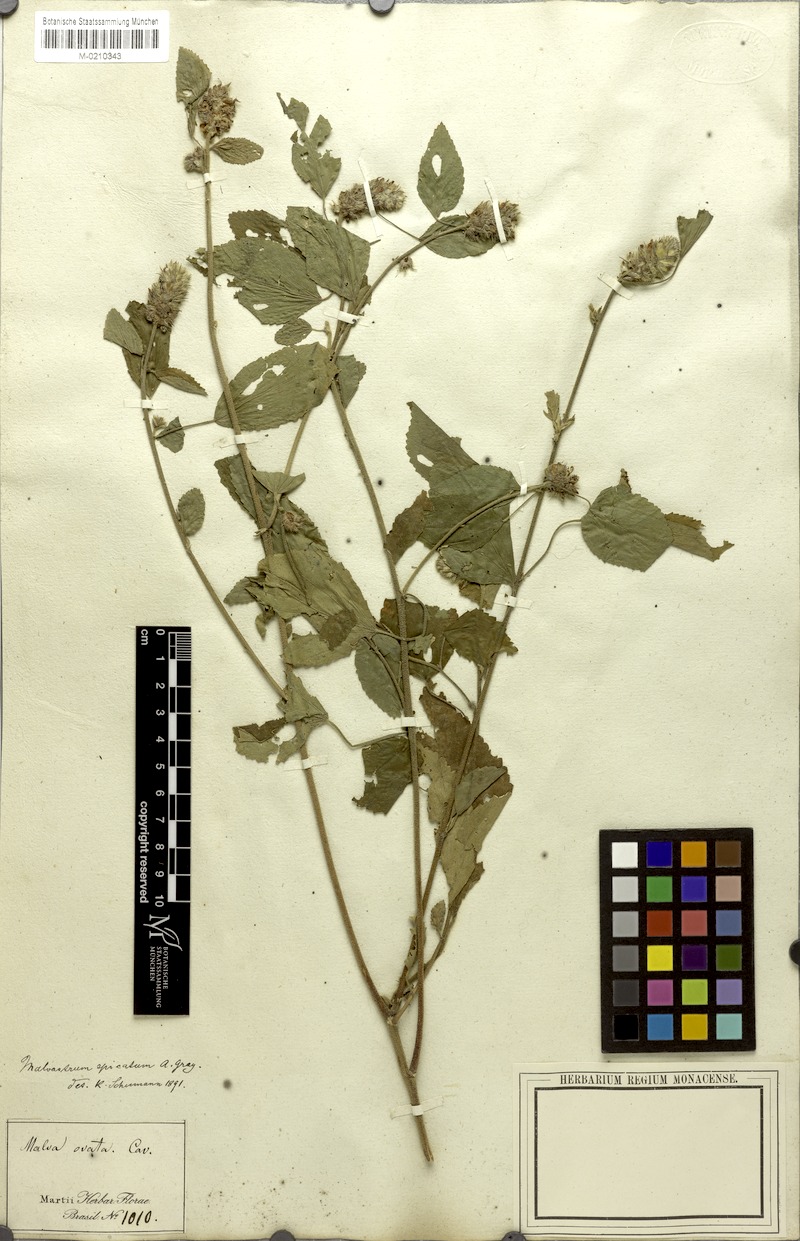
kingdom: Plantae
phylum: Tracheophyta
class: Magnoliopsida
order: Malvales
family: Malvaceae
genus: Melochia
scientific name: Melochia spicata
